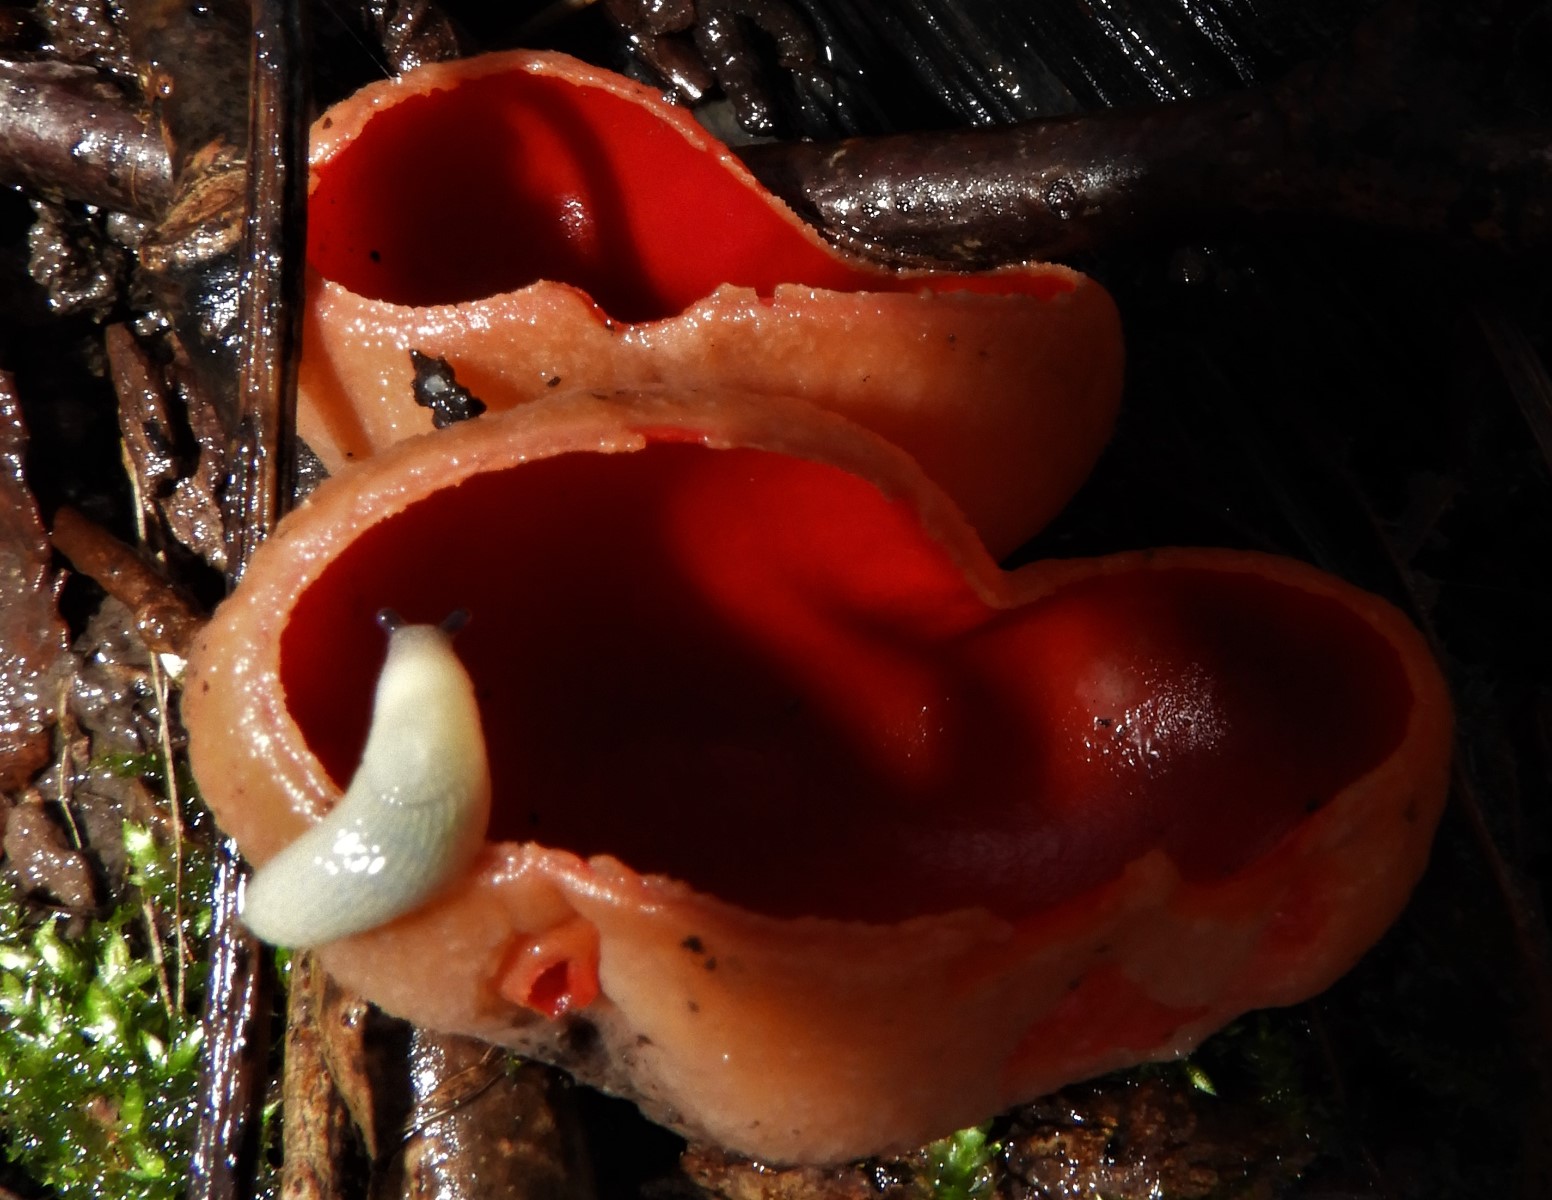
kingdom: Fungi
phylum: Ascomycota
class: Pezizomycetes
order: Pezizales
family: Sarcoscyphaceae
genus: Sarcoscypha
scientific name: Sarcoscypha austriaca
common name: krølhåret pragtbæger
